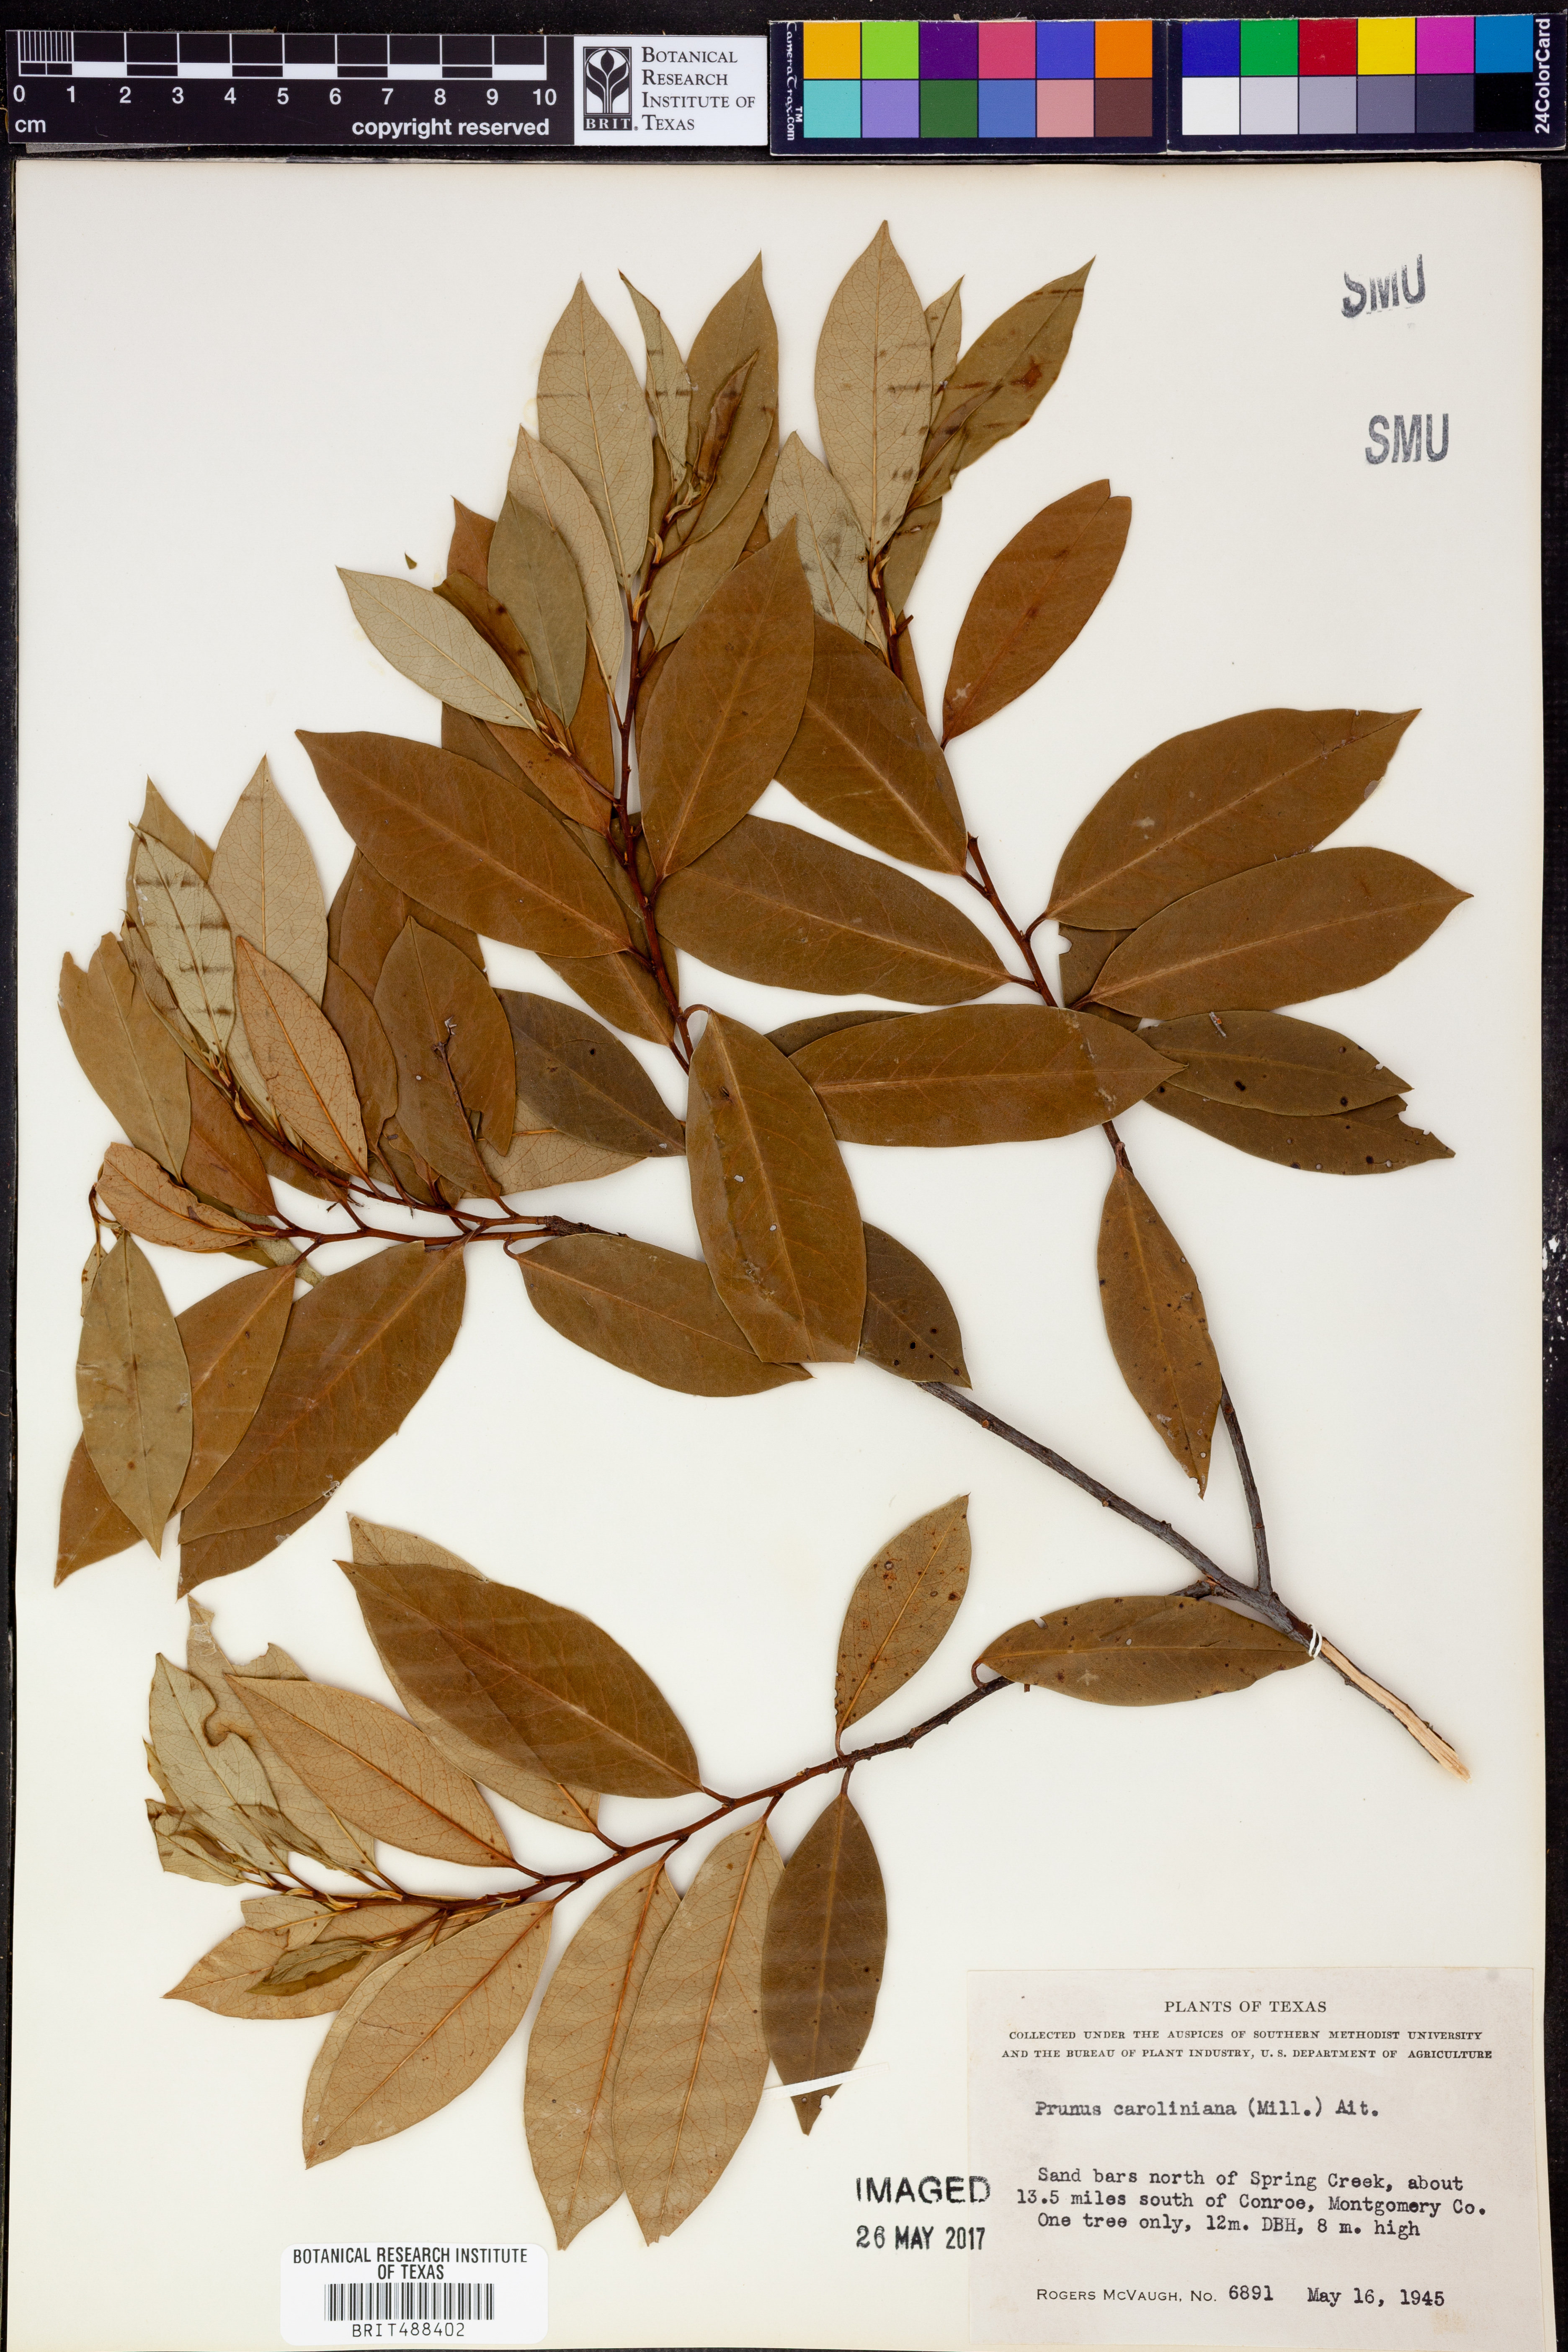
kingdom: Plantae
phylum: Tracheophyta
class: Magnoliopsida
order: Rosales
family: Rosaceae
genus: Prunus
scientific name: Prunus caroliniana
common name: Carolina laurel cherry
